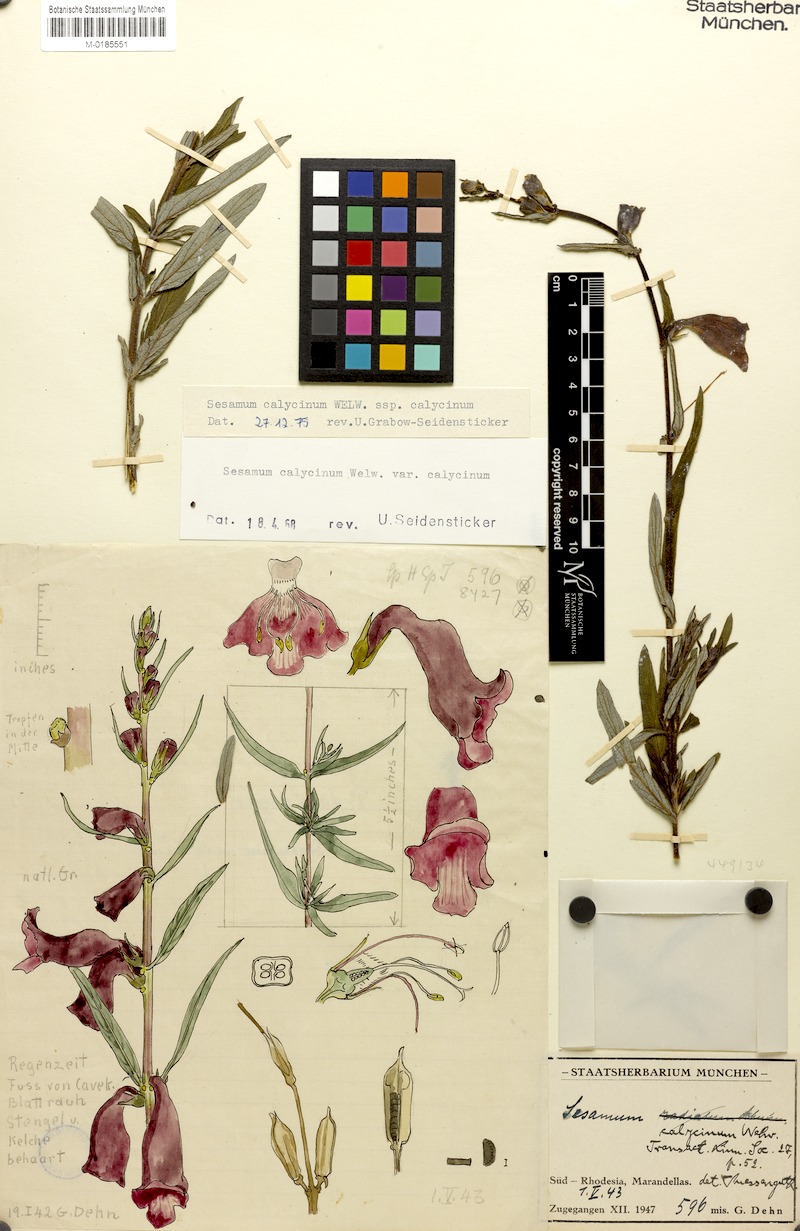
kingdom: Plantae
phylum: Tracheophyta
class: Magnoliopsida
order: Lamiales
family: Pedaliaceae
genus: Sesamum
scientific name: Sesamum calycinum
